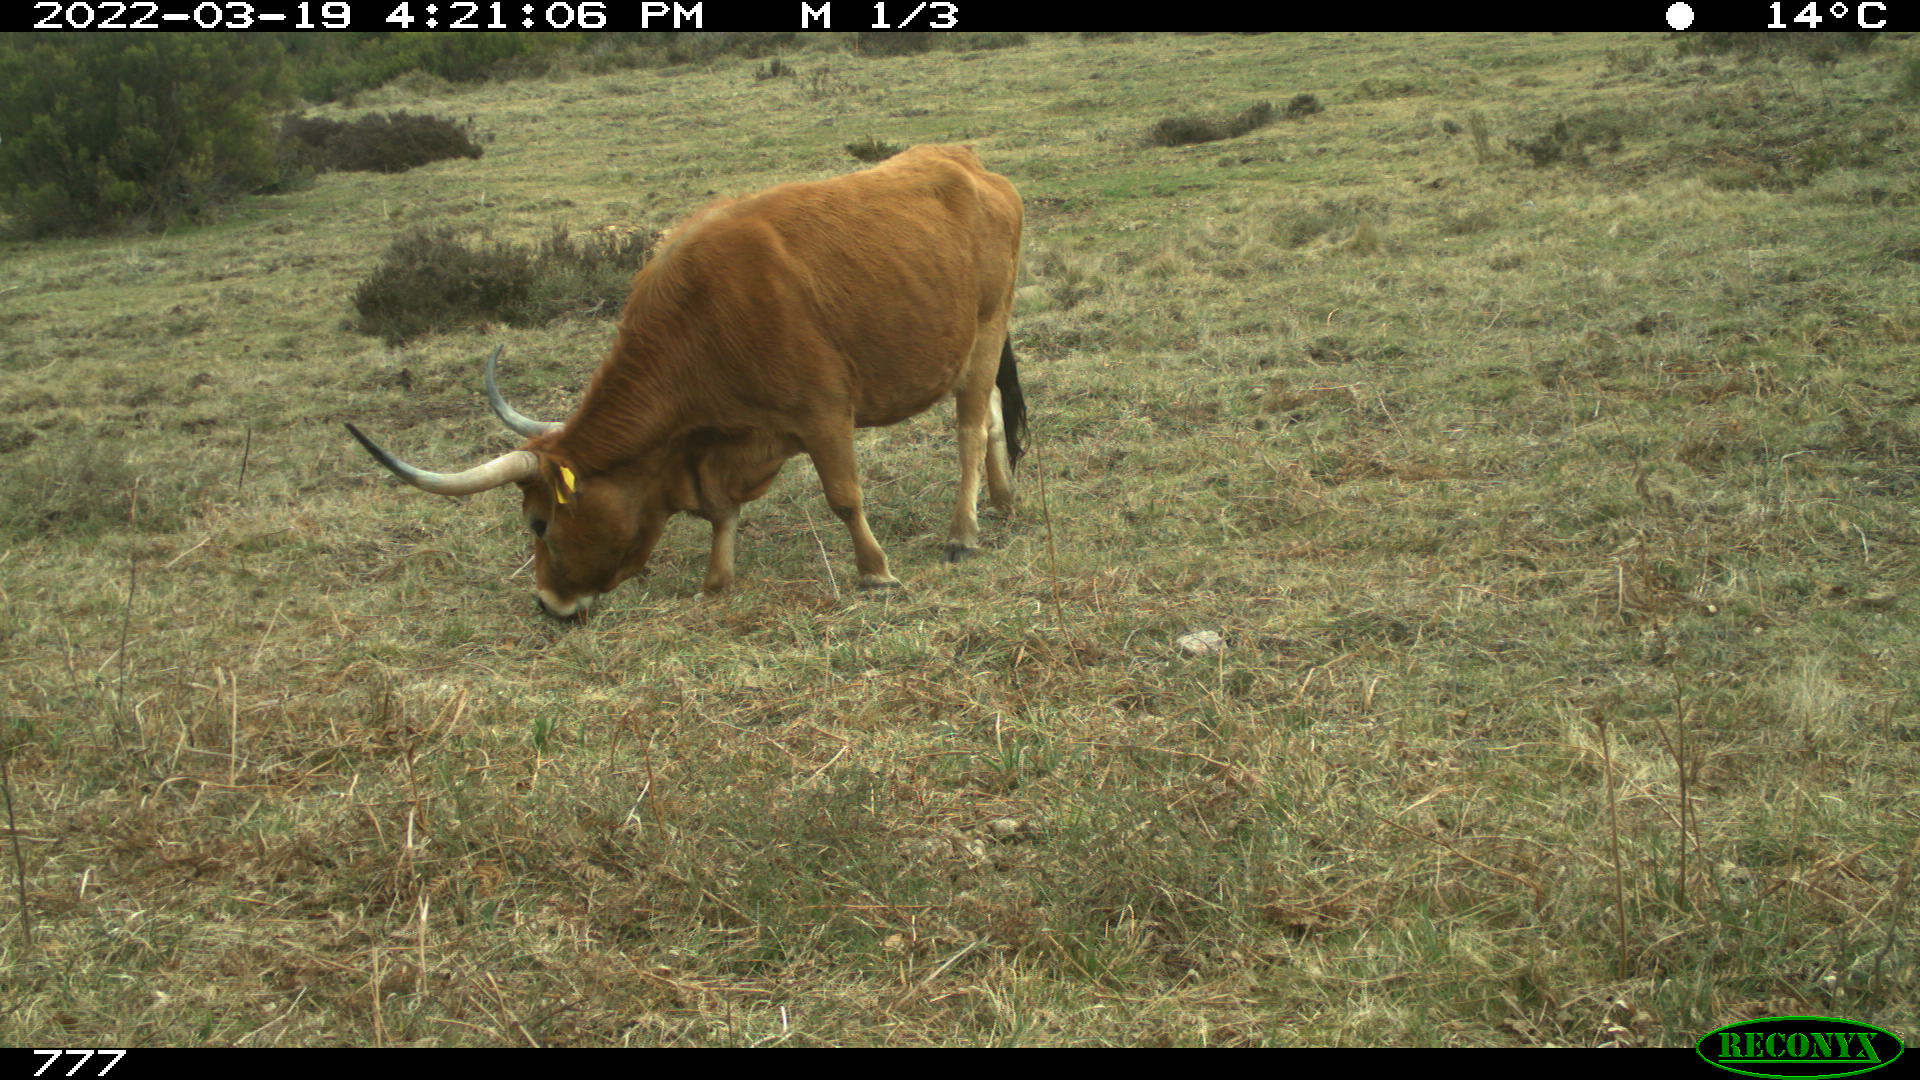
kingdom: Animalia
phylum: Chordata
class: Mammalia
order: Artiodactyla
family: Bovidae
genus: Bos
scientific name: Bos taurus
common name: Domesticated cattle
